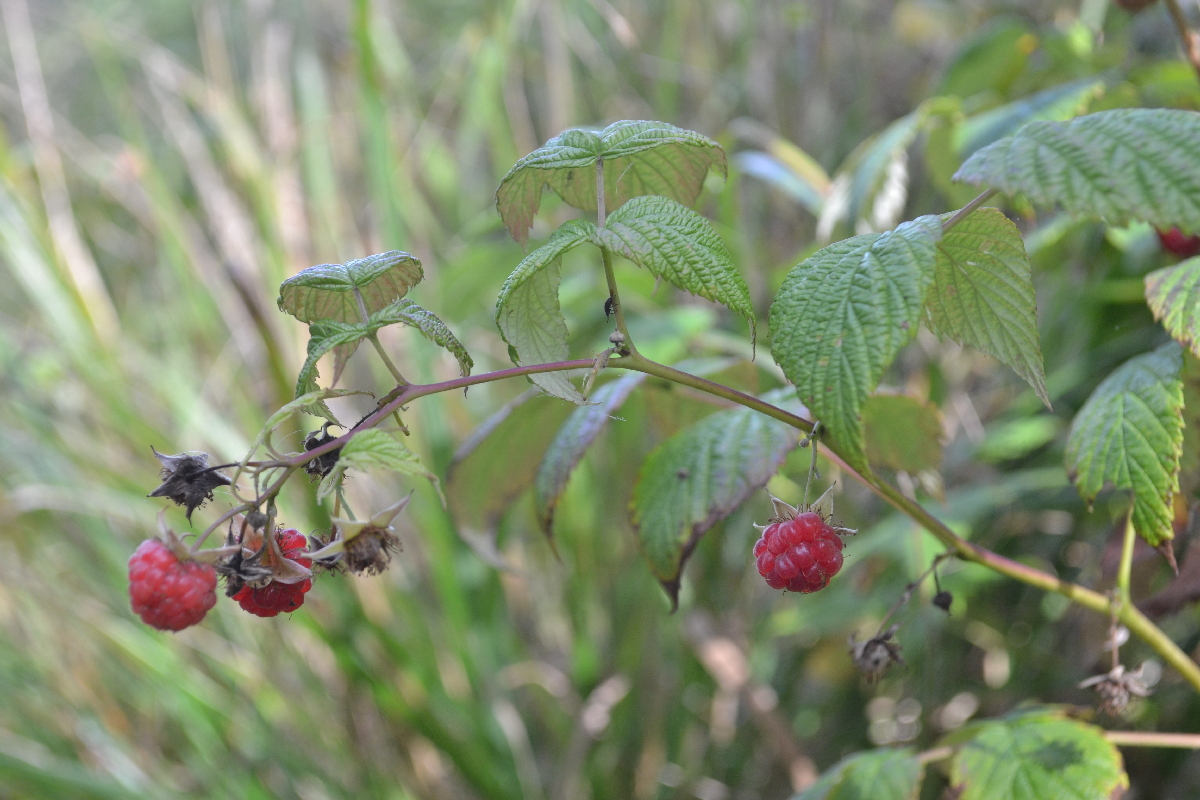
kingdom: Plantae
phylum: Tracheophyta
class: Magnoliopsida
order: Rosales
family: Rosaceae
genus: Rubus
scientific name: Rubus idaeus
